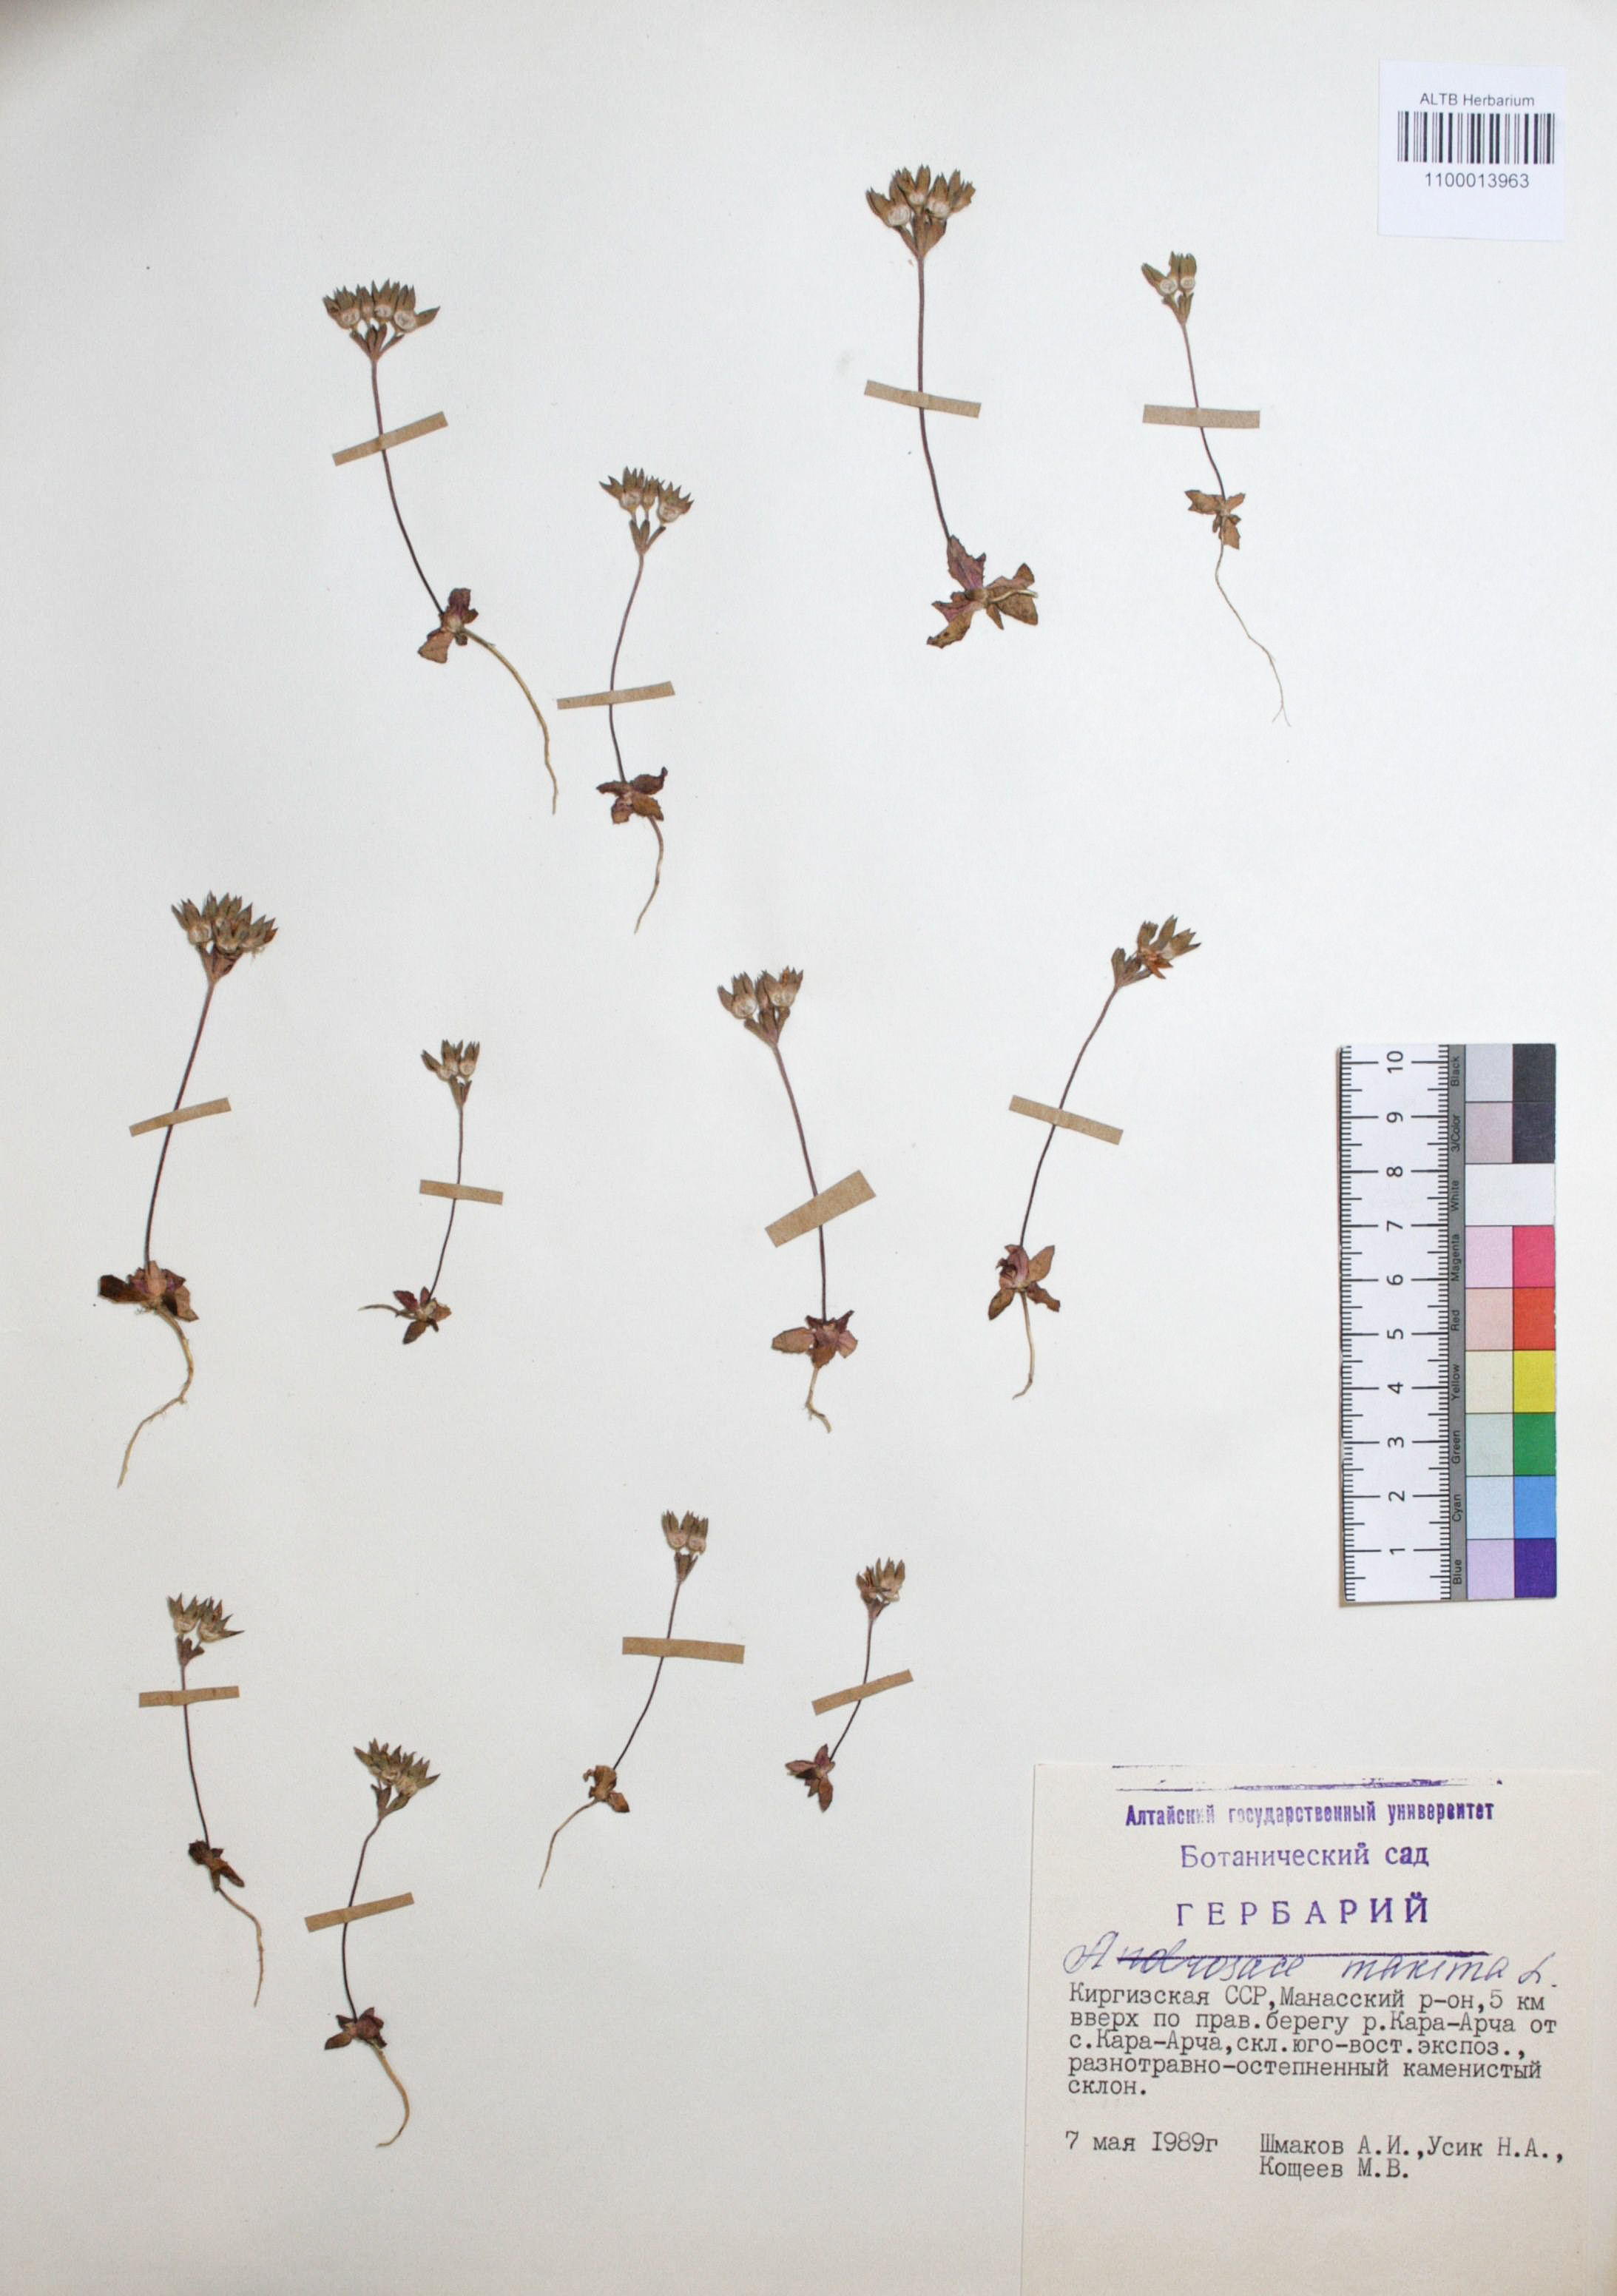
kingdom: Plantae
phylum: Tracheophyta
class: Magnoliopsida
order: Ericales
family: Primulaceae
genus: Androsace
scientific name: Androsace maxima
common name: Annual androsace
